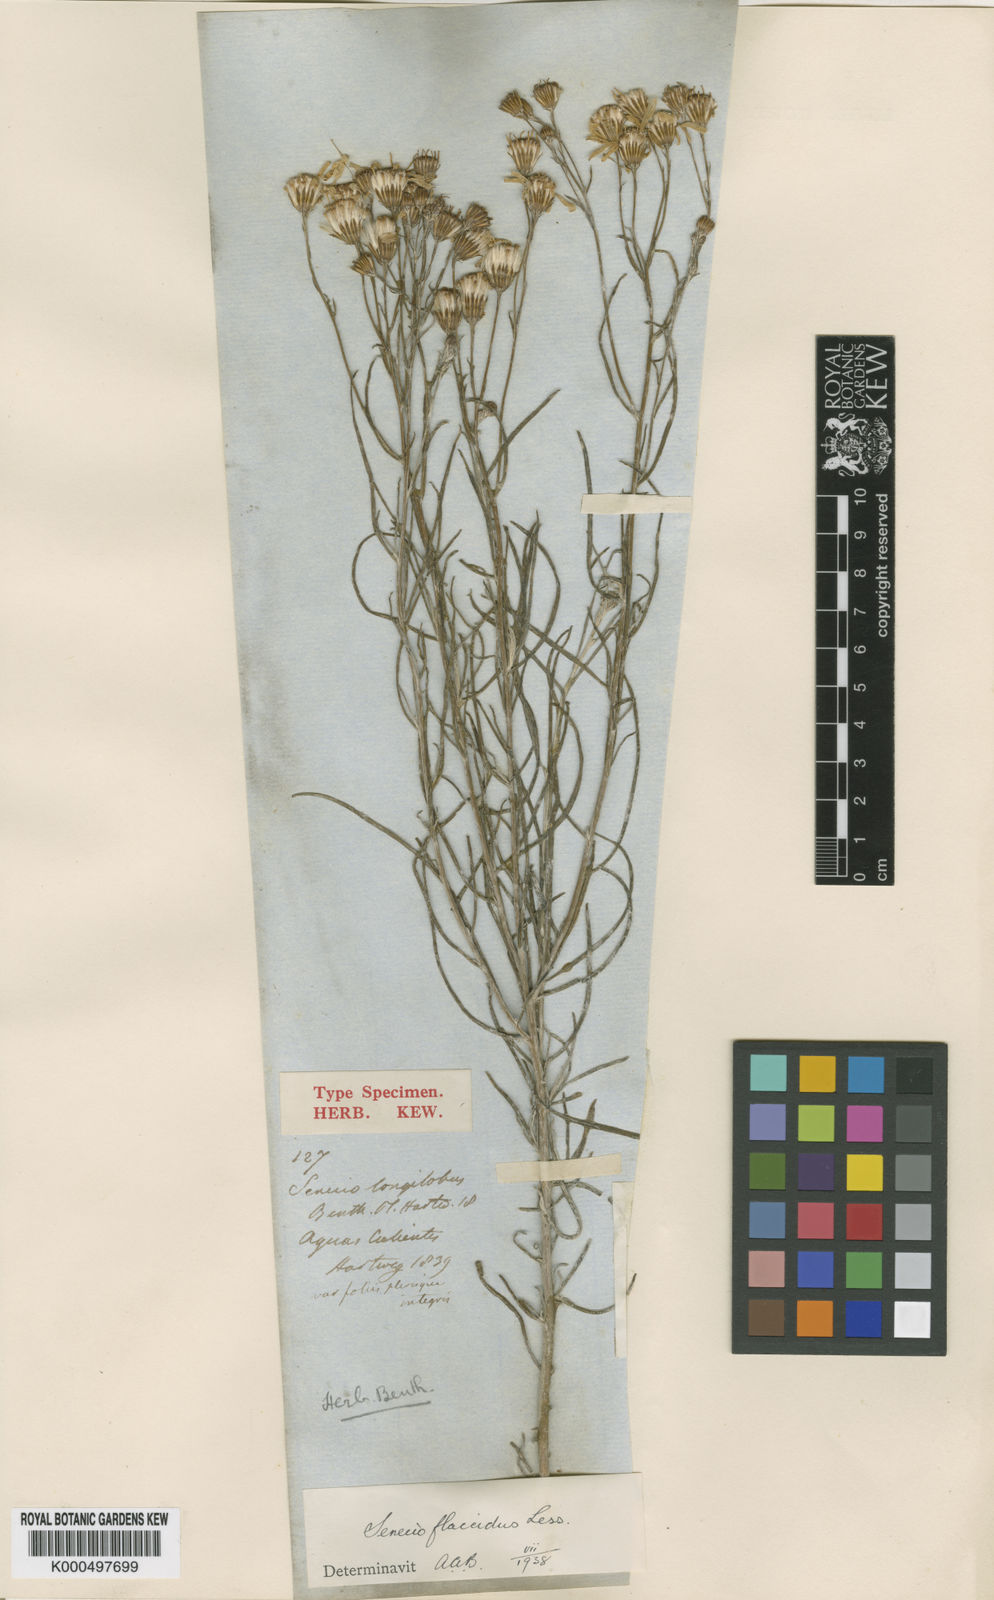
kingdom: Plantae
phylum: Tracheophyta
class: Magnoliopsida
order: Asterales
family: Asteraceae
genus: Senecio
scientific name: Senecio flaccidus
